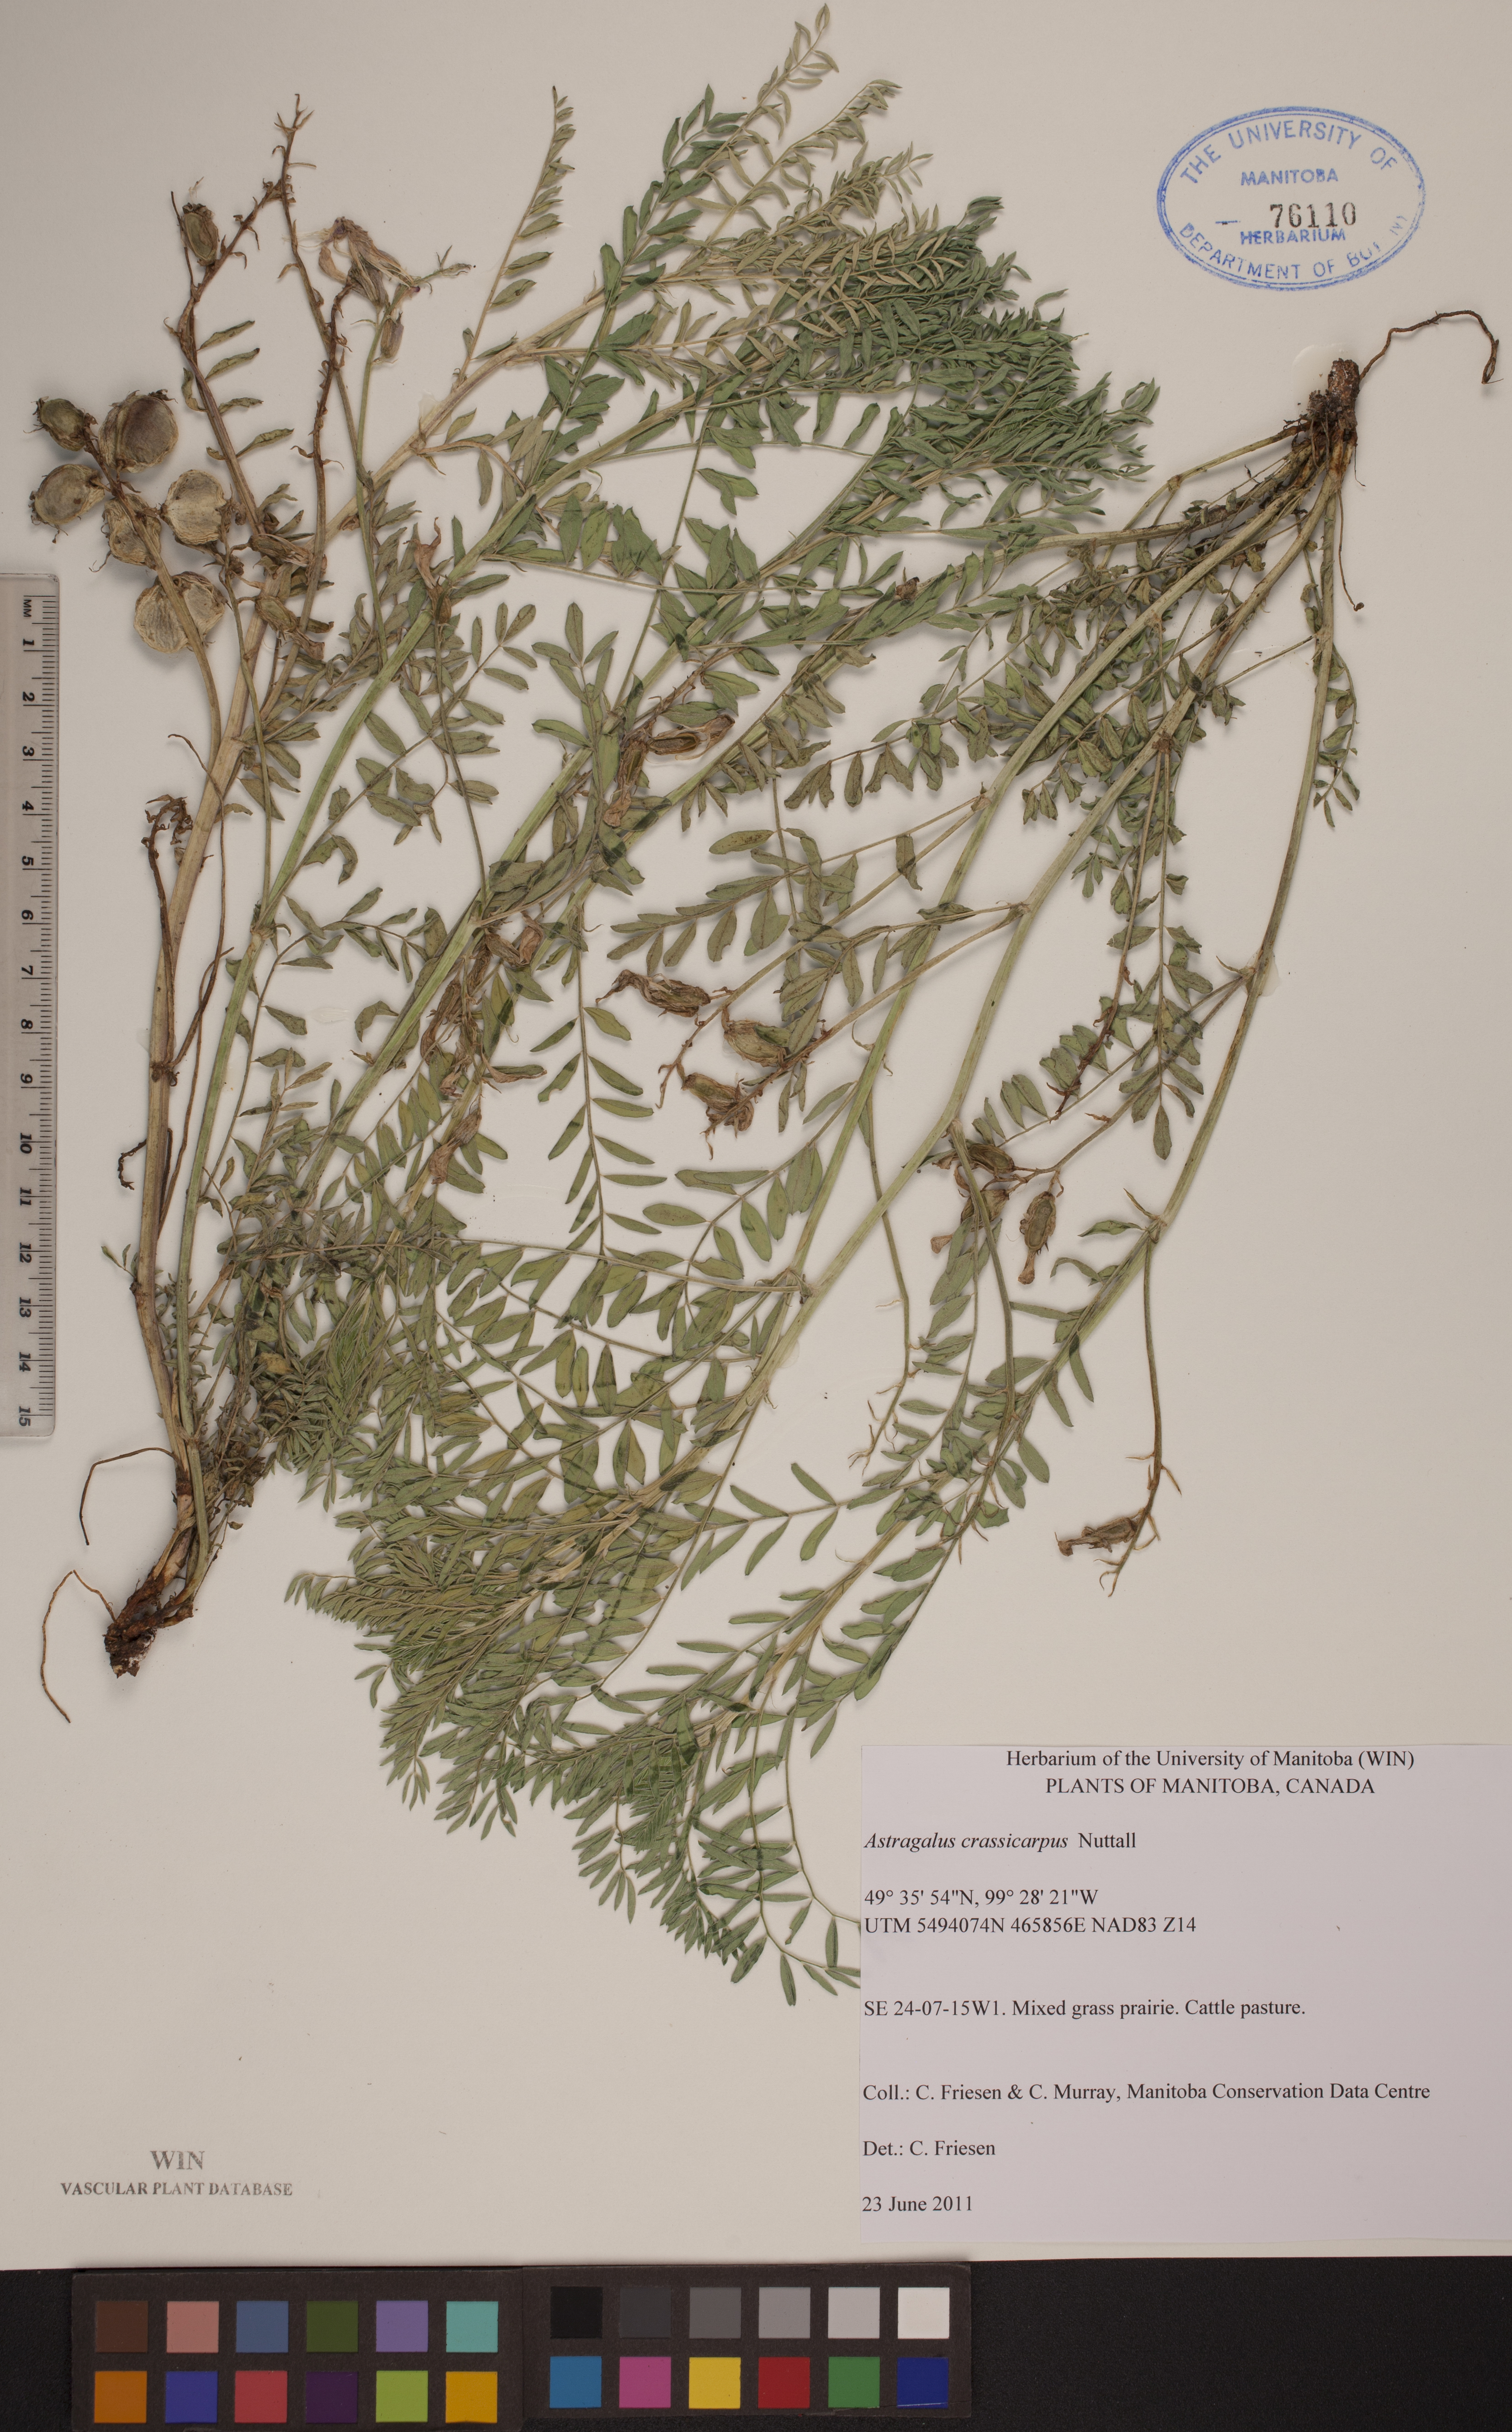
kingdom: Plantae
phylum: Tracheophyta
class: Magnoliopsida
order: Fabales
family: Fabaceae
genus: Astragalus
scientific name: Astragalus crassicarpus
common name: Ground-plum milk-vetch
